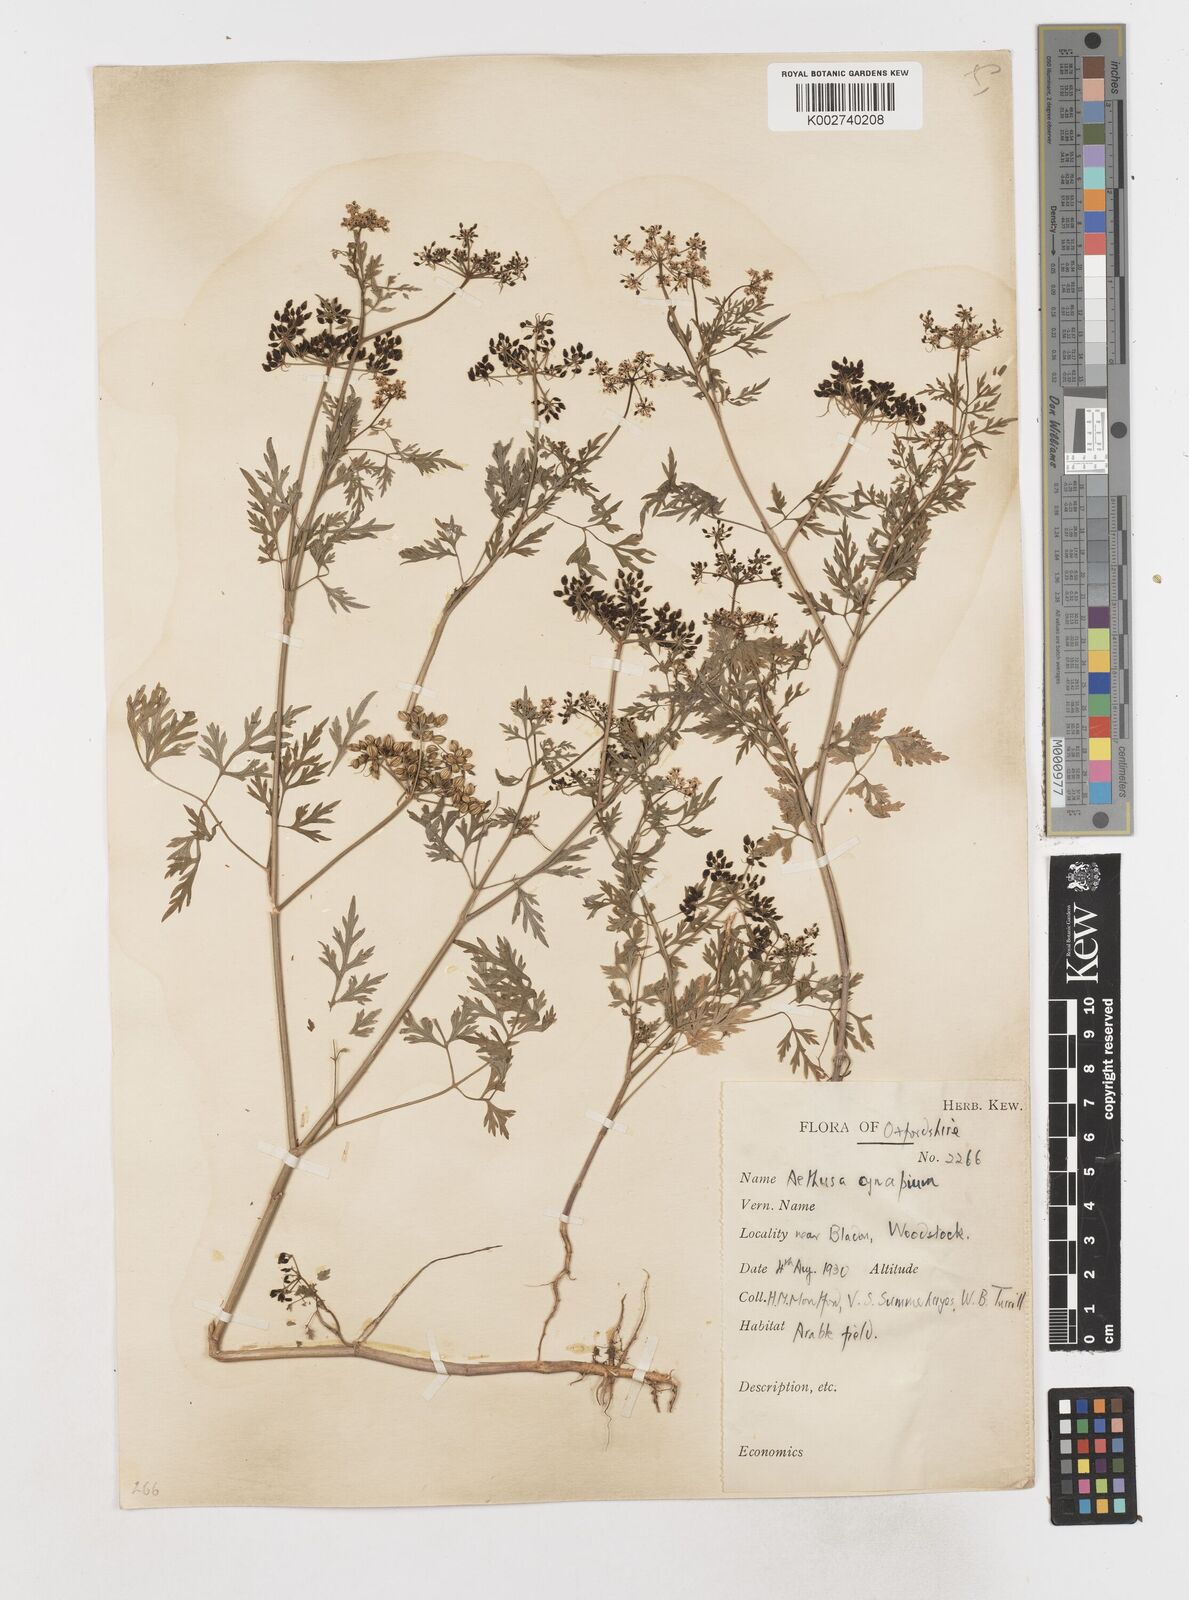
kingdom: Plantae
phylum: Tracheophyta
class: Magnoliopsida
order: Apiales
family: Apiaceae
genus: Aethusa
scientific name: Aethusa cynapium
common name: Fool's parsley
